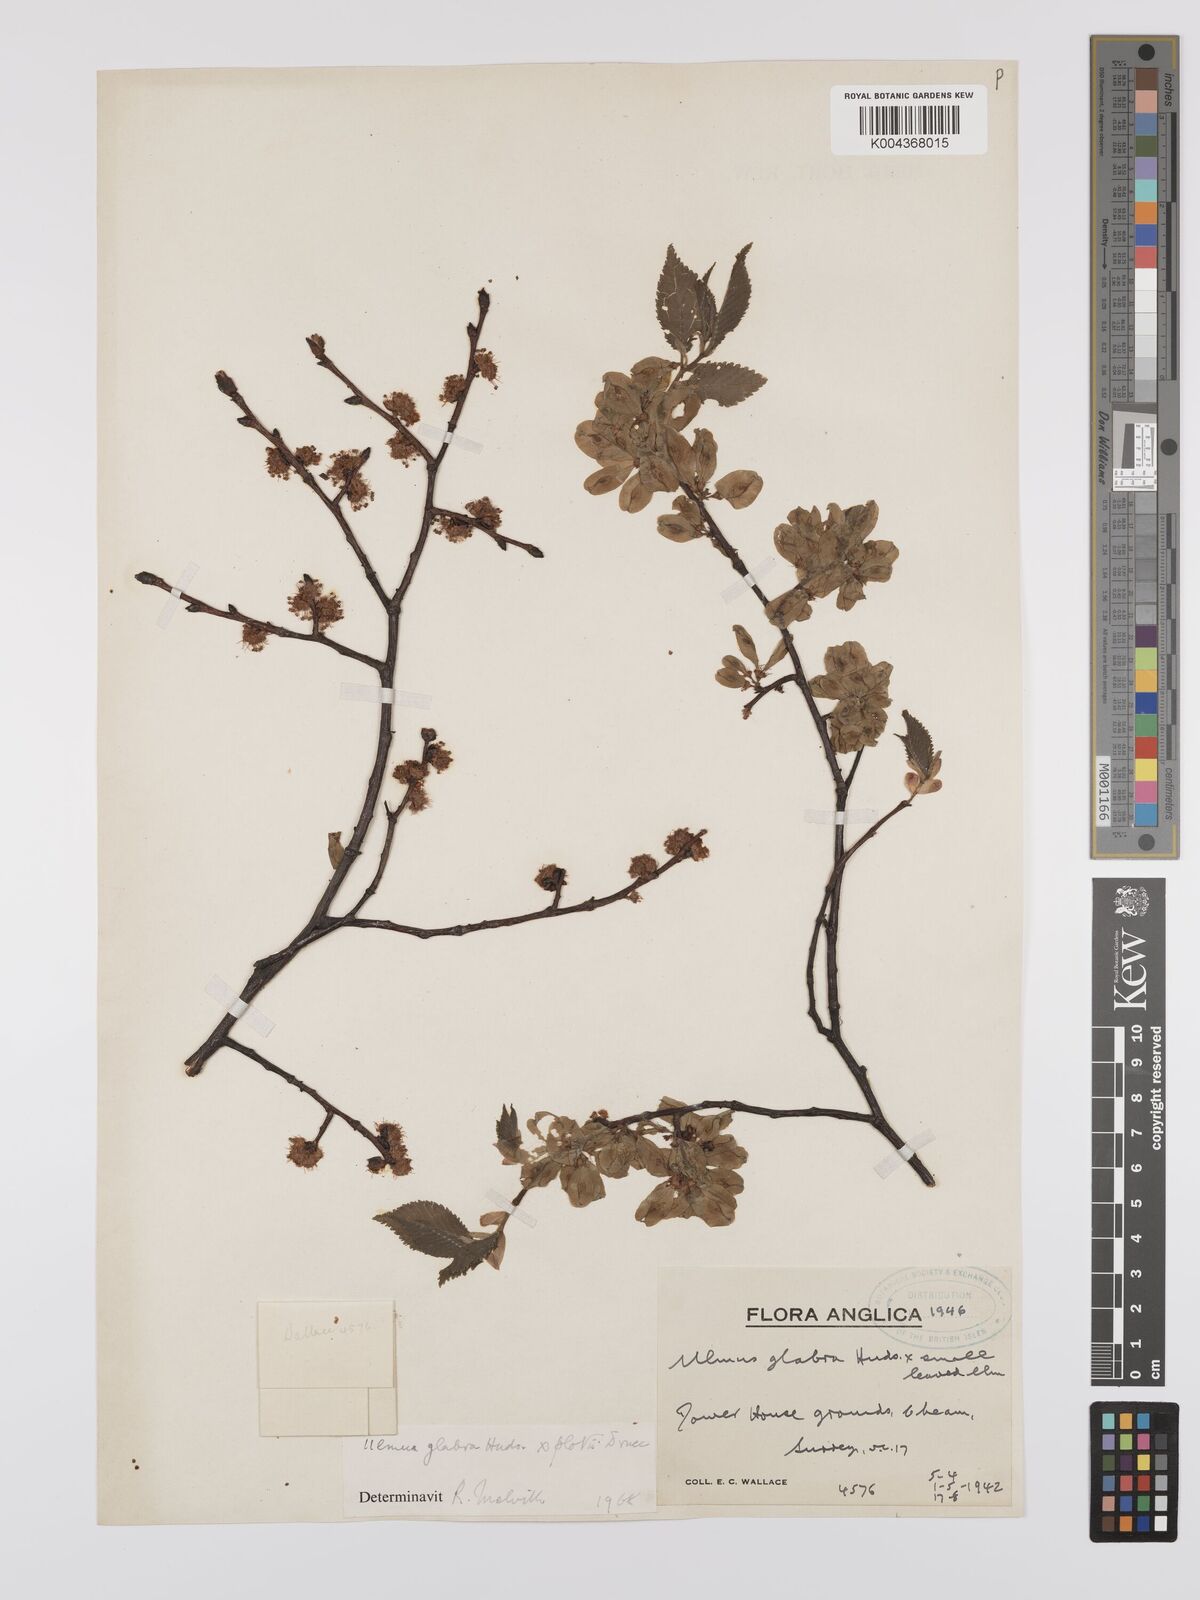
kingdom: Plantae
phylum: Tracheophyta
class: Magnoliopsida
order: Rosales
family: Ulmaceae
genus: Ulmus
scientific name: Ulmus
